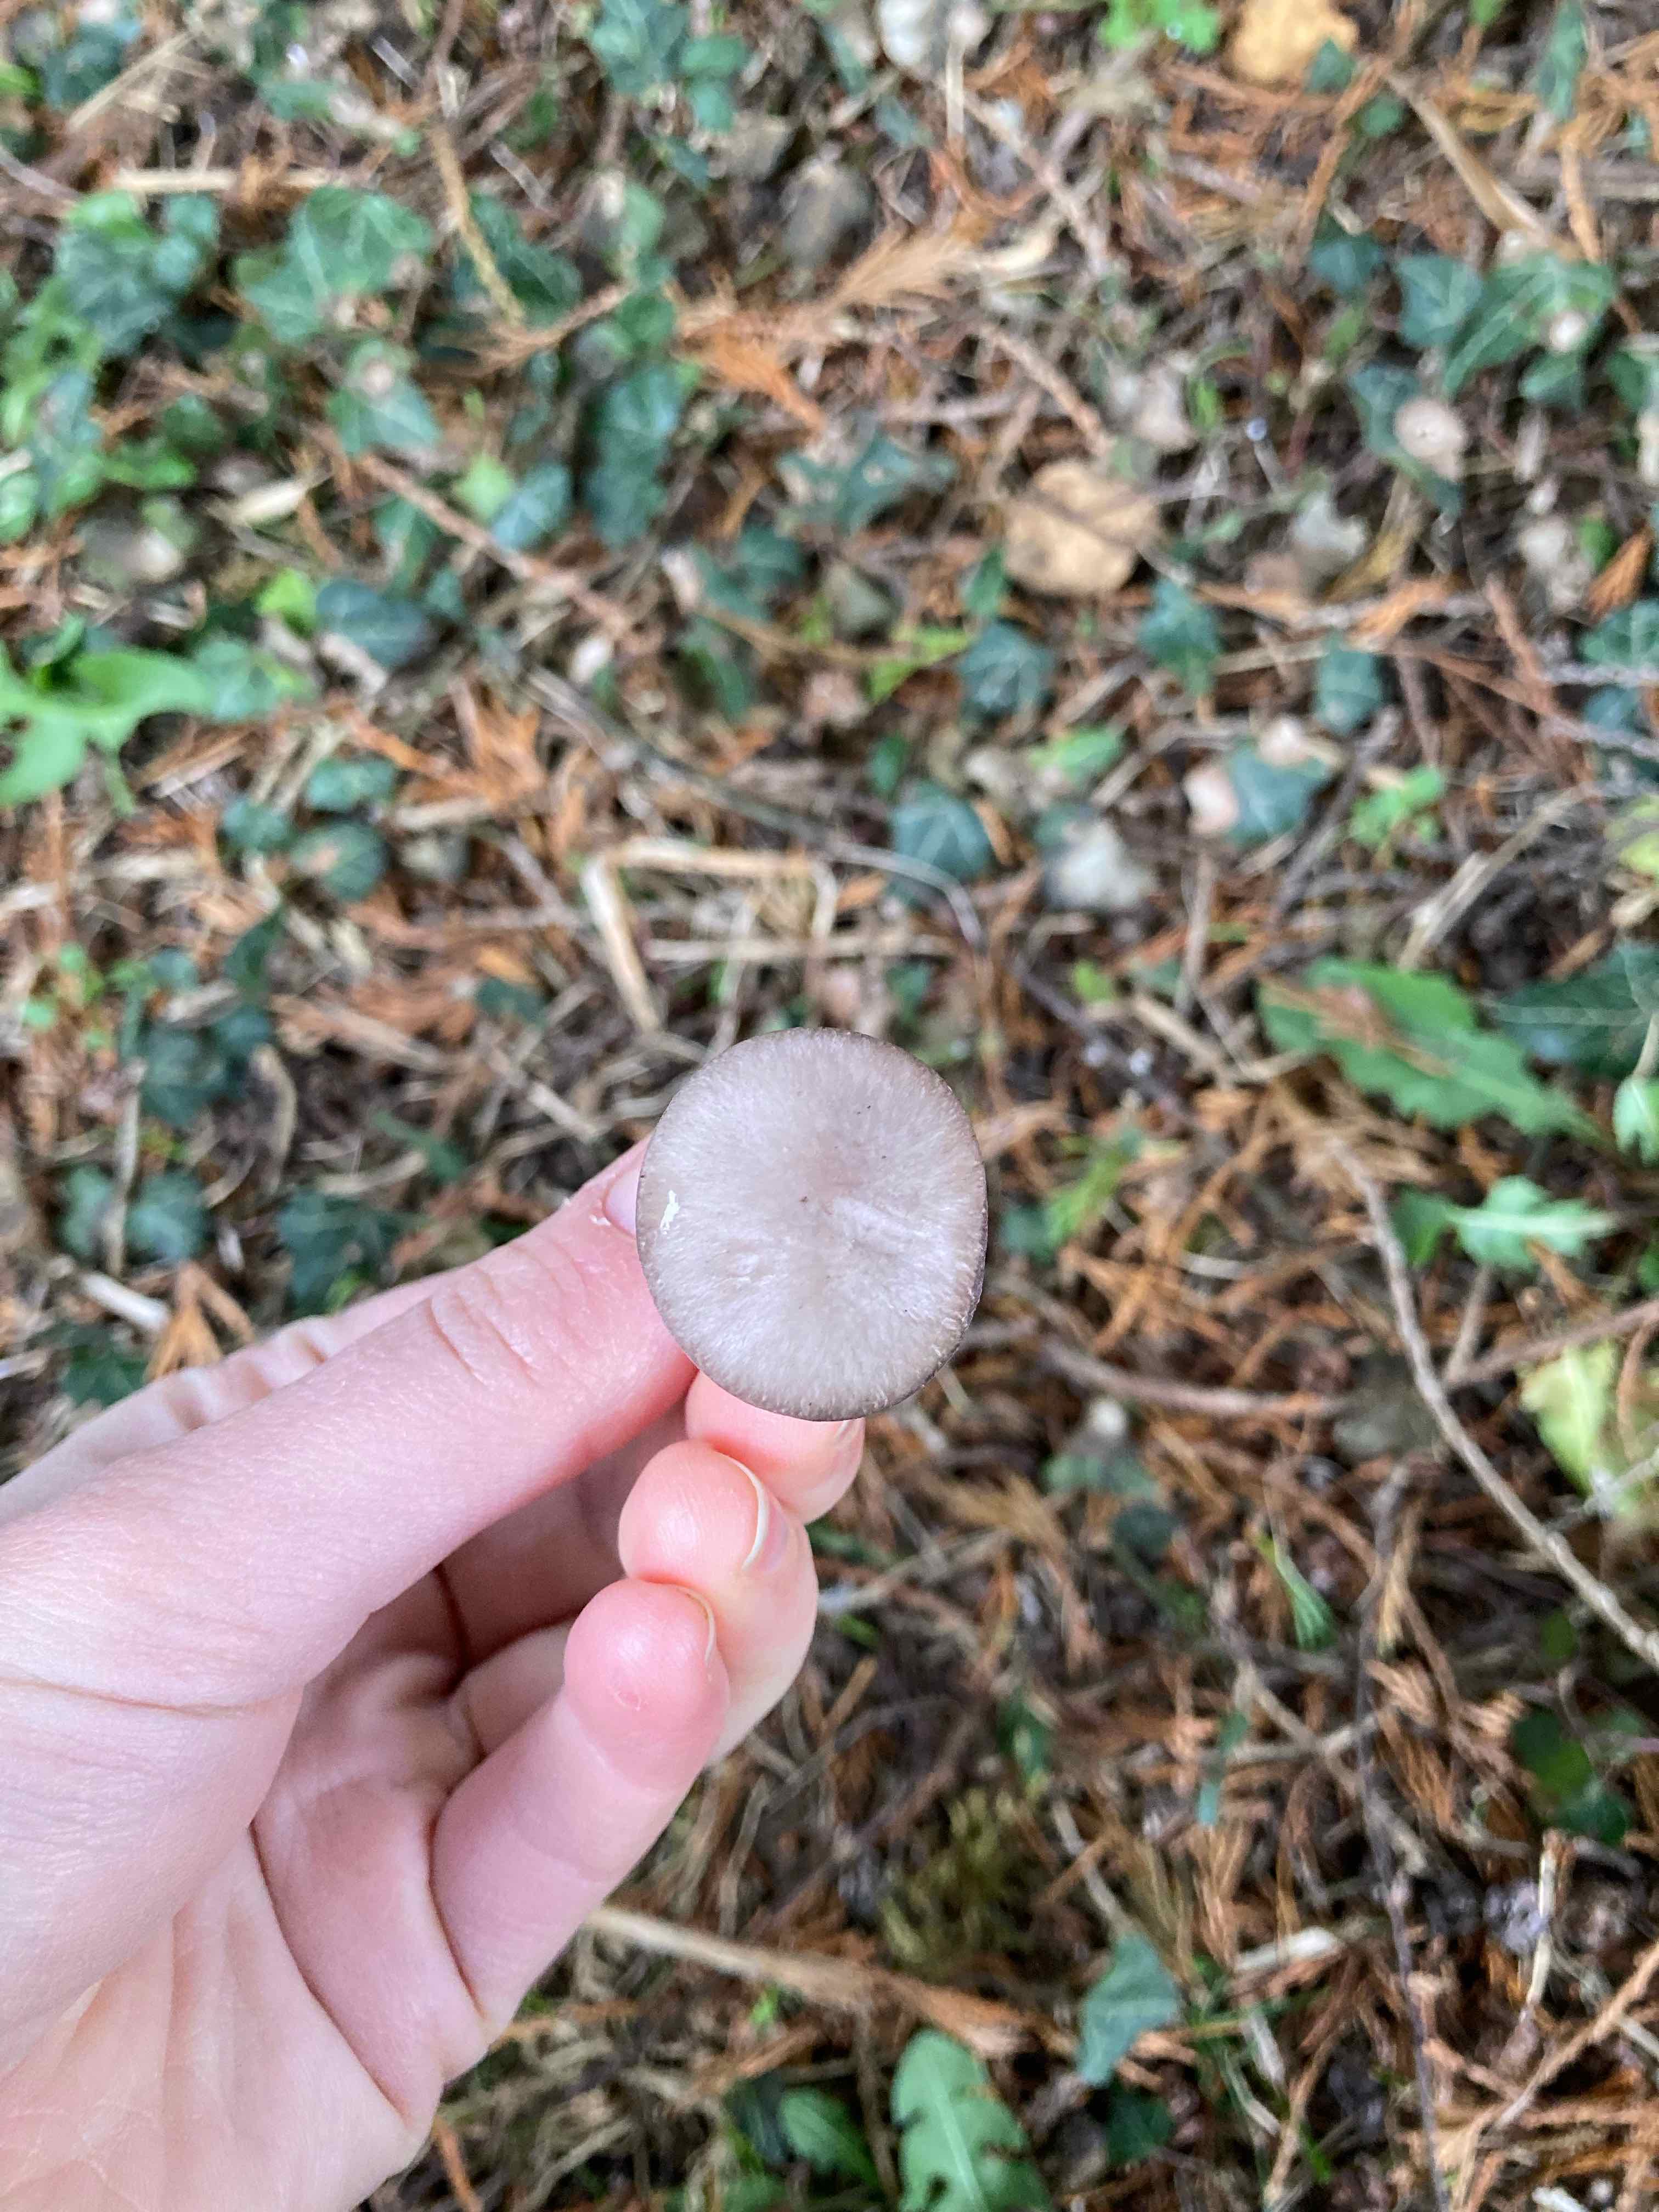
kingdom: Fungi
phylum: Basidiomycota
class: Agaricomycetes
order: Agaricales
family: Tricholomataceae
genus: Lepista
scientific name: Lepista nuda
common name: violet hekseringshat
